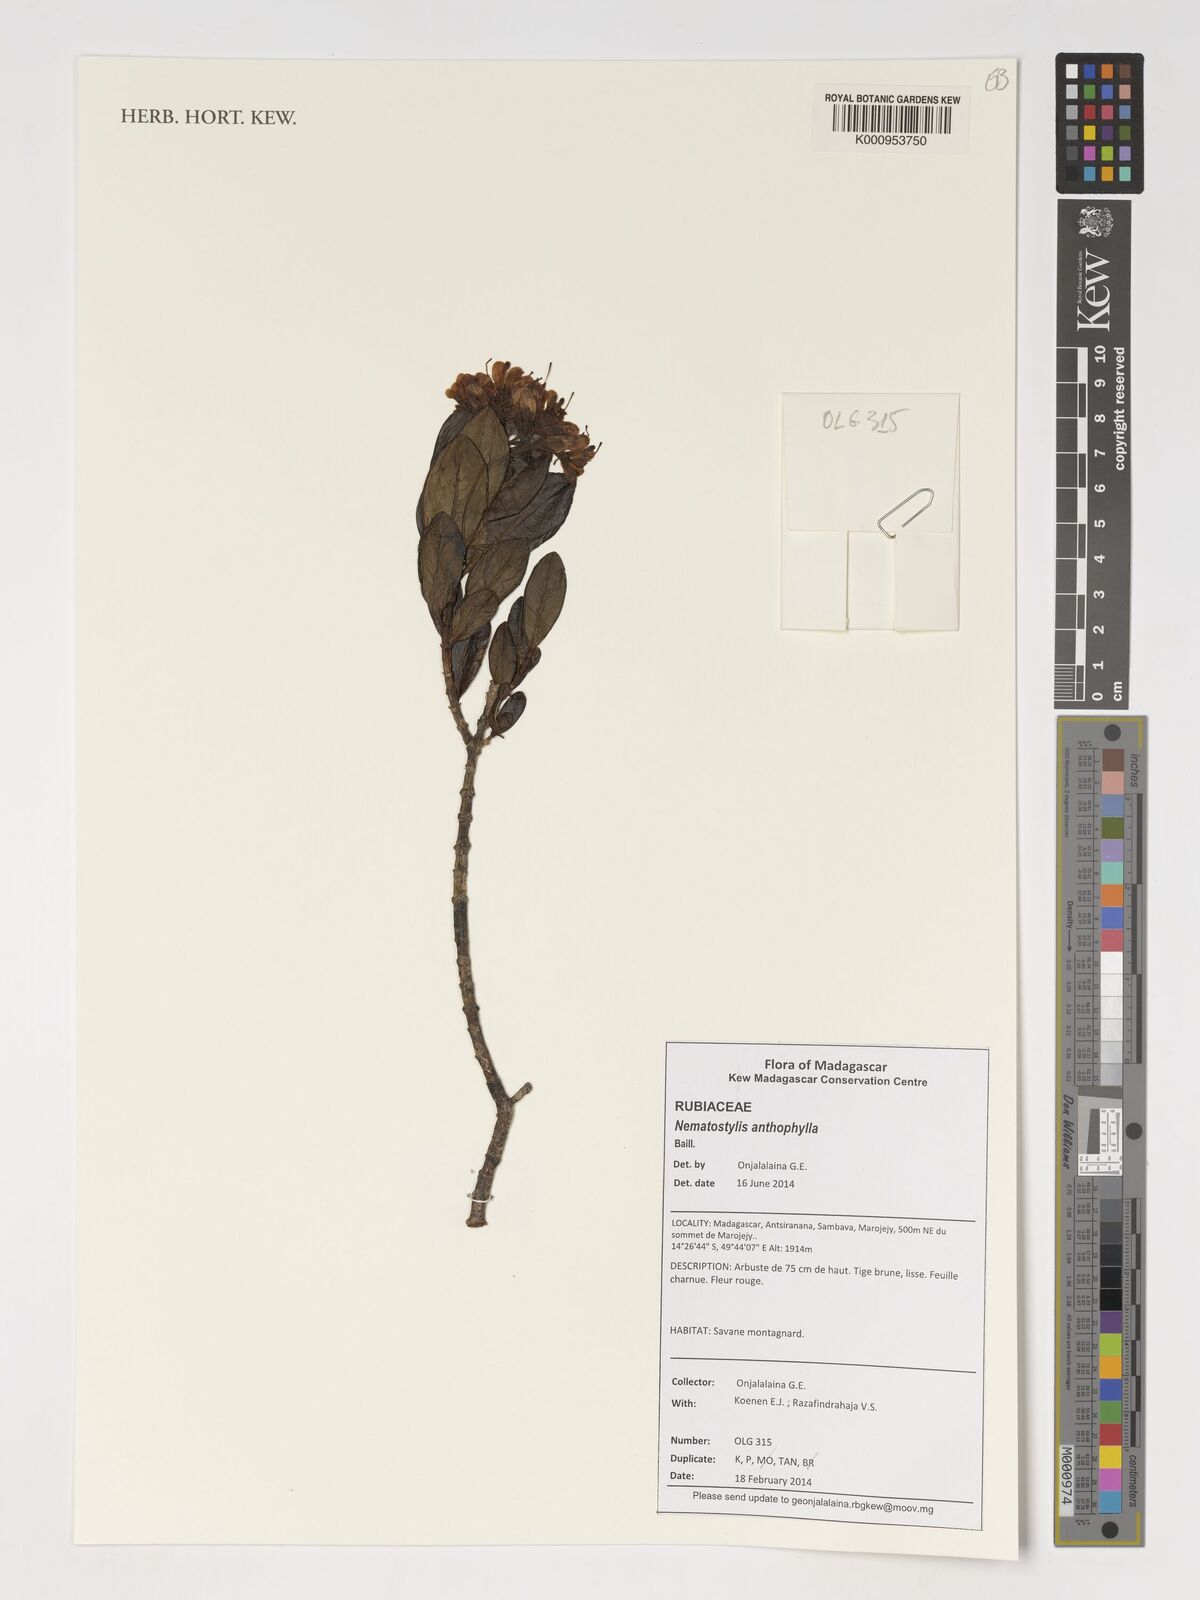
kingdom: Plantae
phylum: Tracheophyta
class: Magnoliopsida
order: Gentianales
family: Rubiaceae
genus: Nematostylis
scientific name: Nematostylis anthophylla
